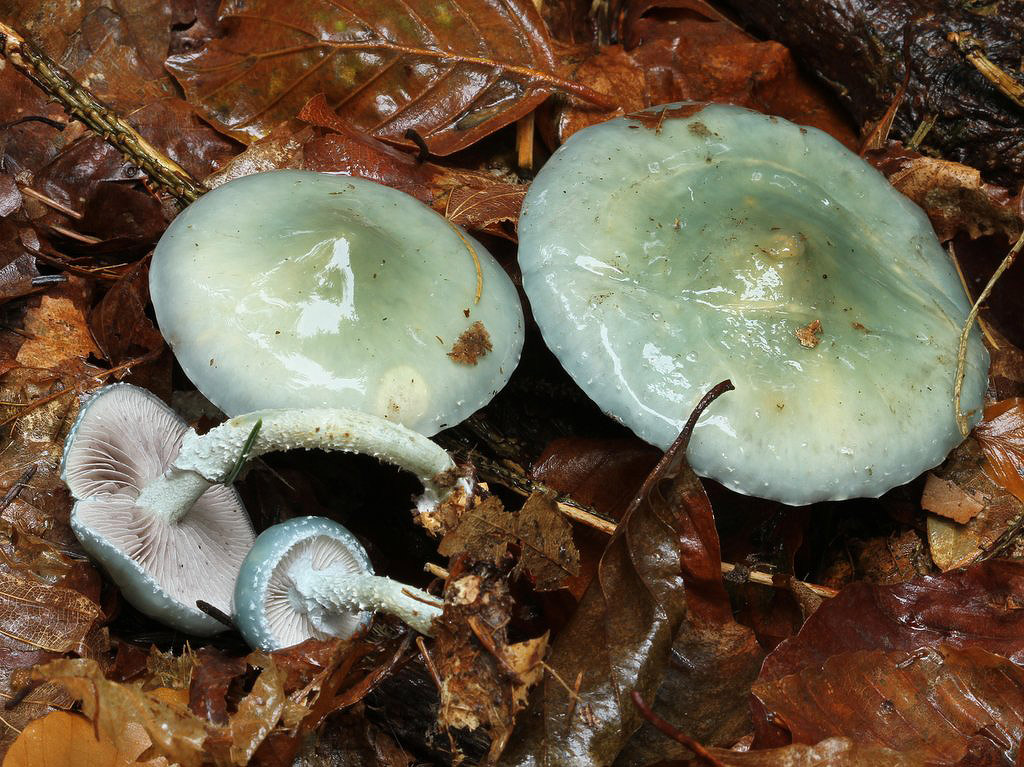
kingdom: Fungi
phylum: Basidiomycota
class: Agaricomycetes
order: Agaricales
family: Strophariaceae
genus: Stropharia
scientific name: Stropharia aeruginosa
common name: spanskgrøn bredblad
